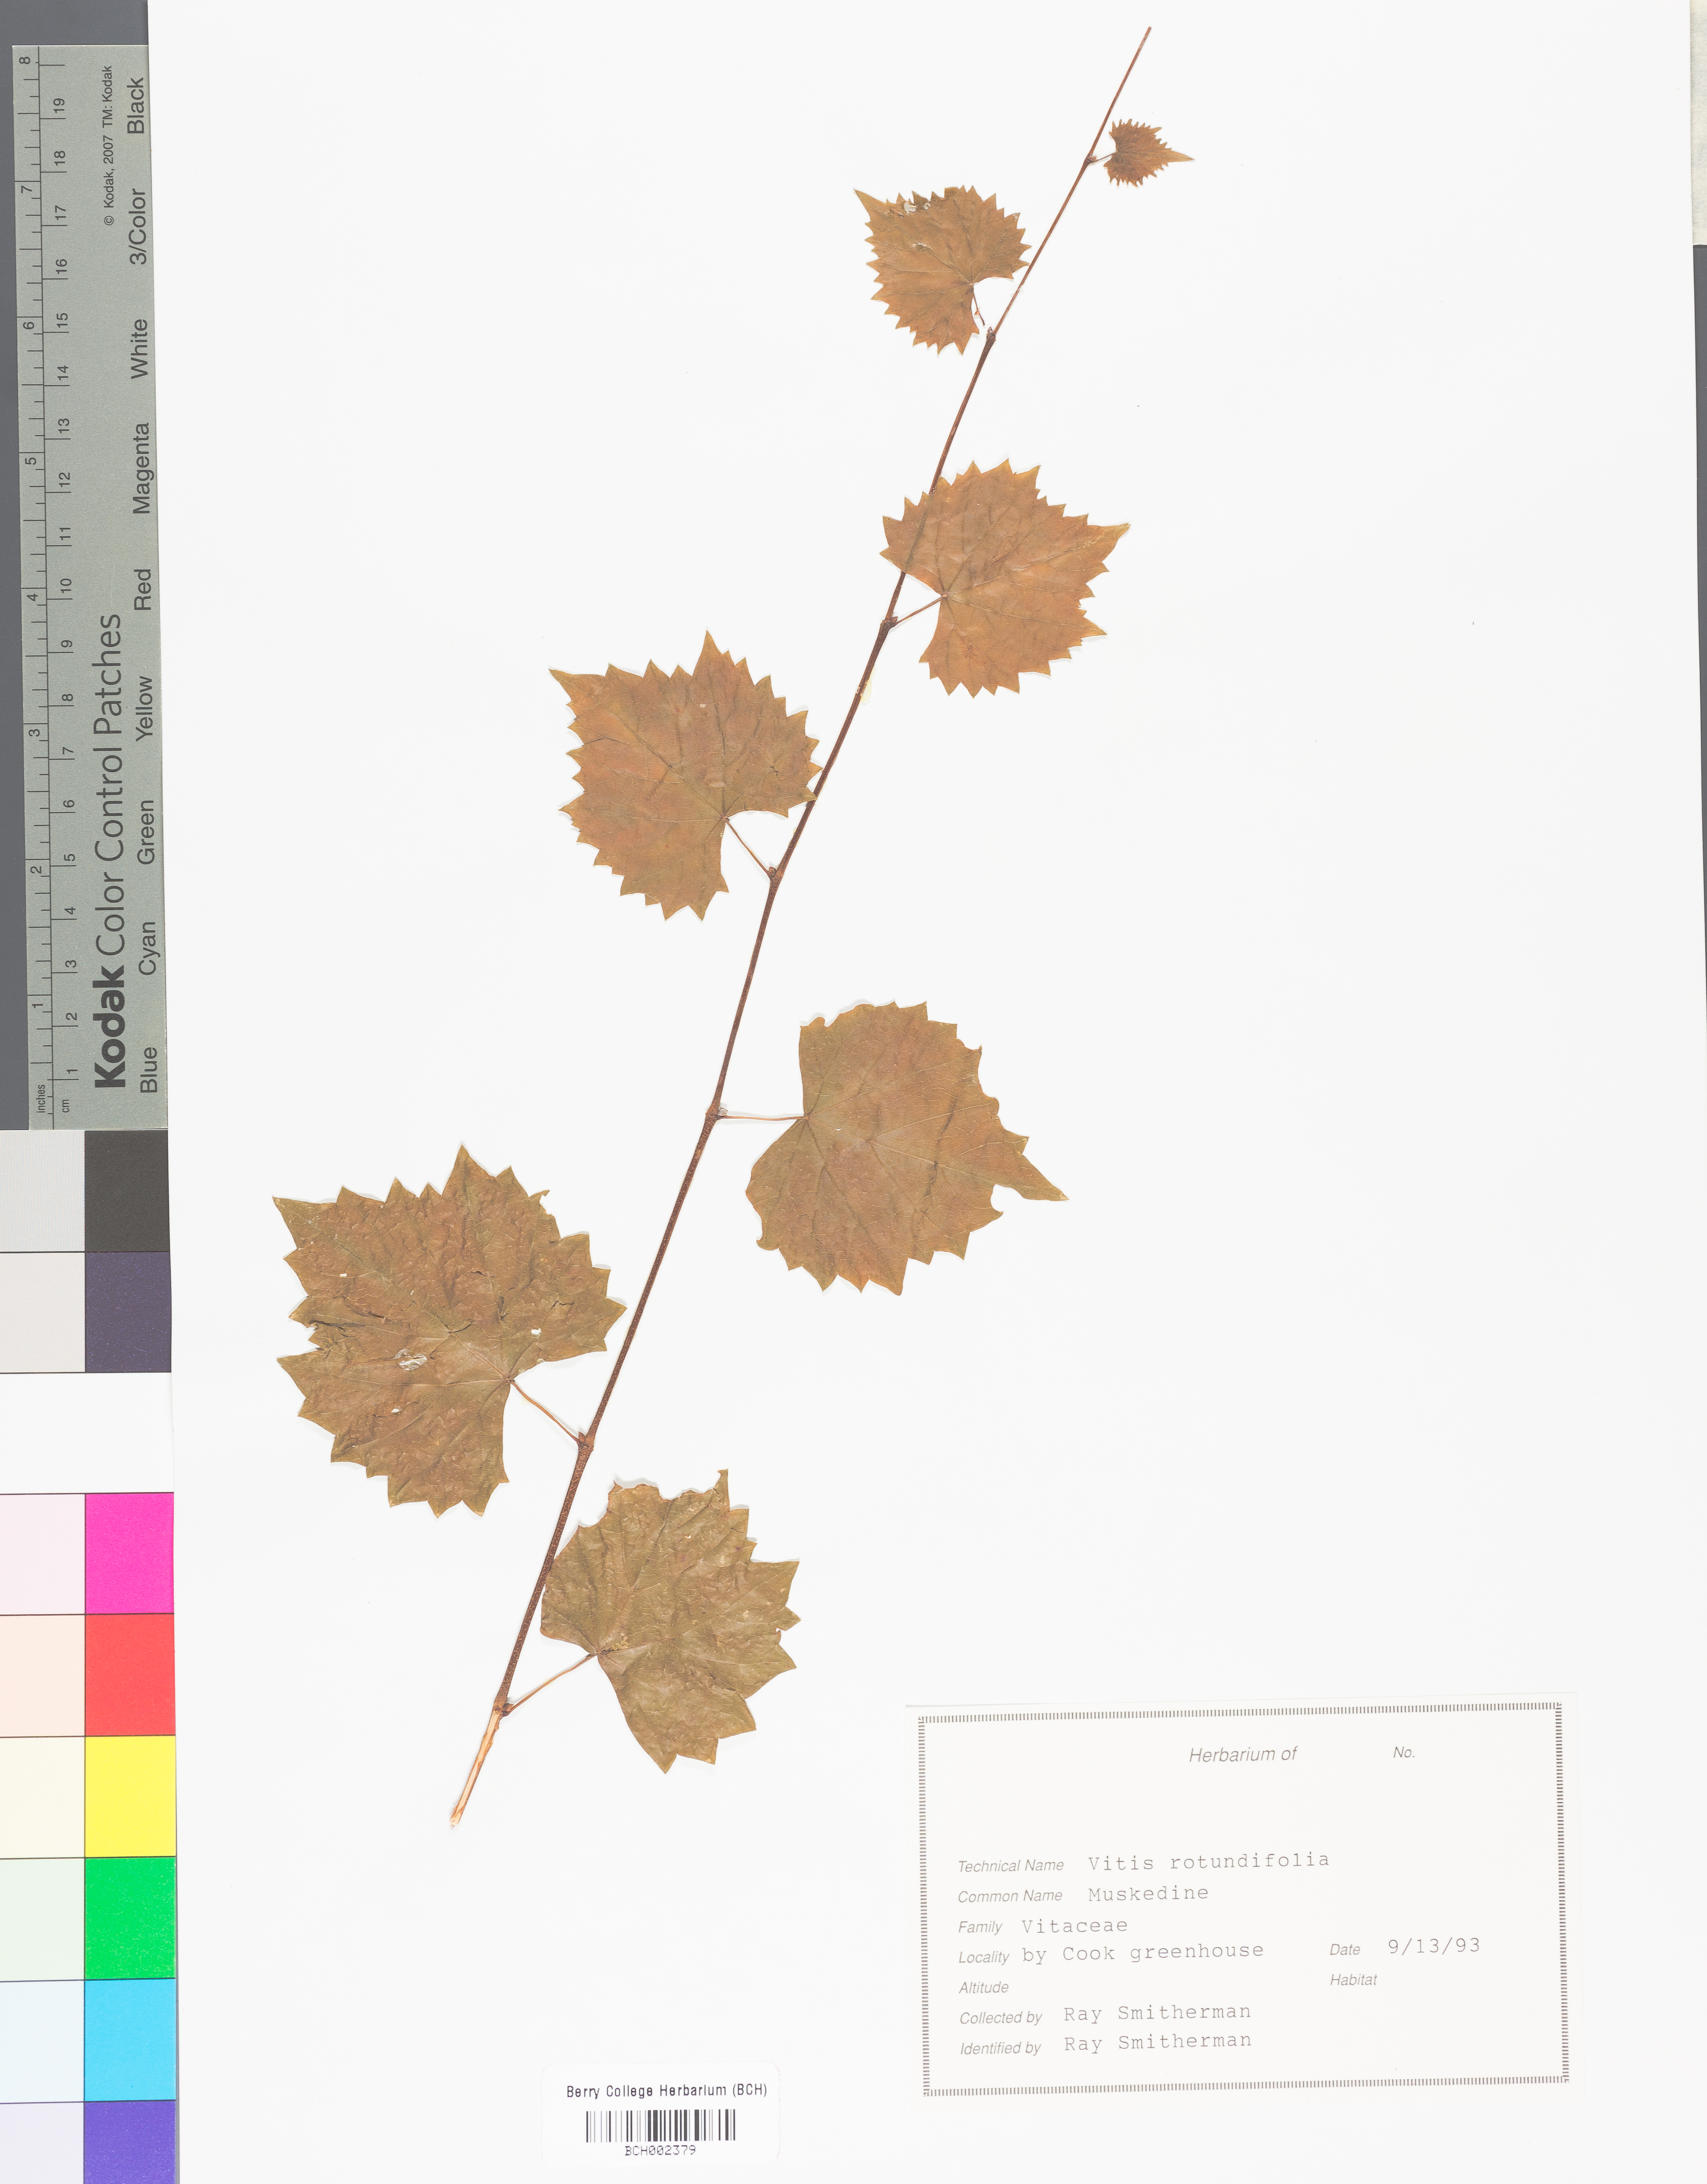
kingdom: Plantae
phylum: Tracheophyta
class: Magnoliopsida
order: Vitales
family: Vitaceae
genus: Vitis
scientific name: Vitis rotundifolia
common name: Muscadine grape
